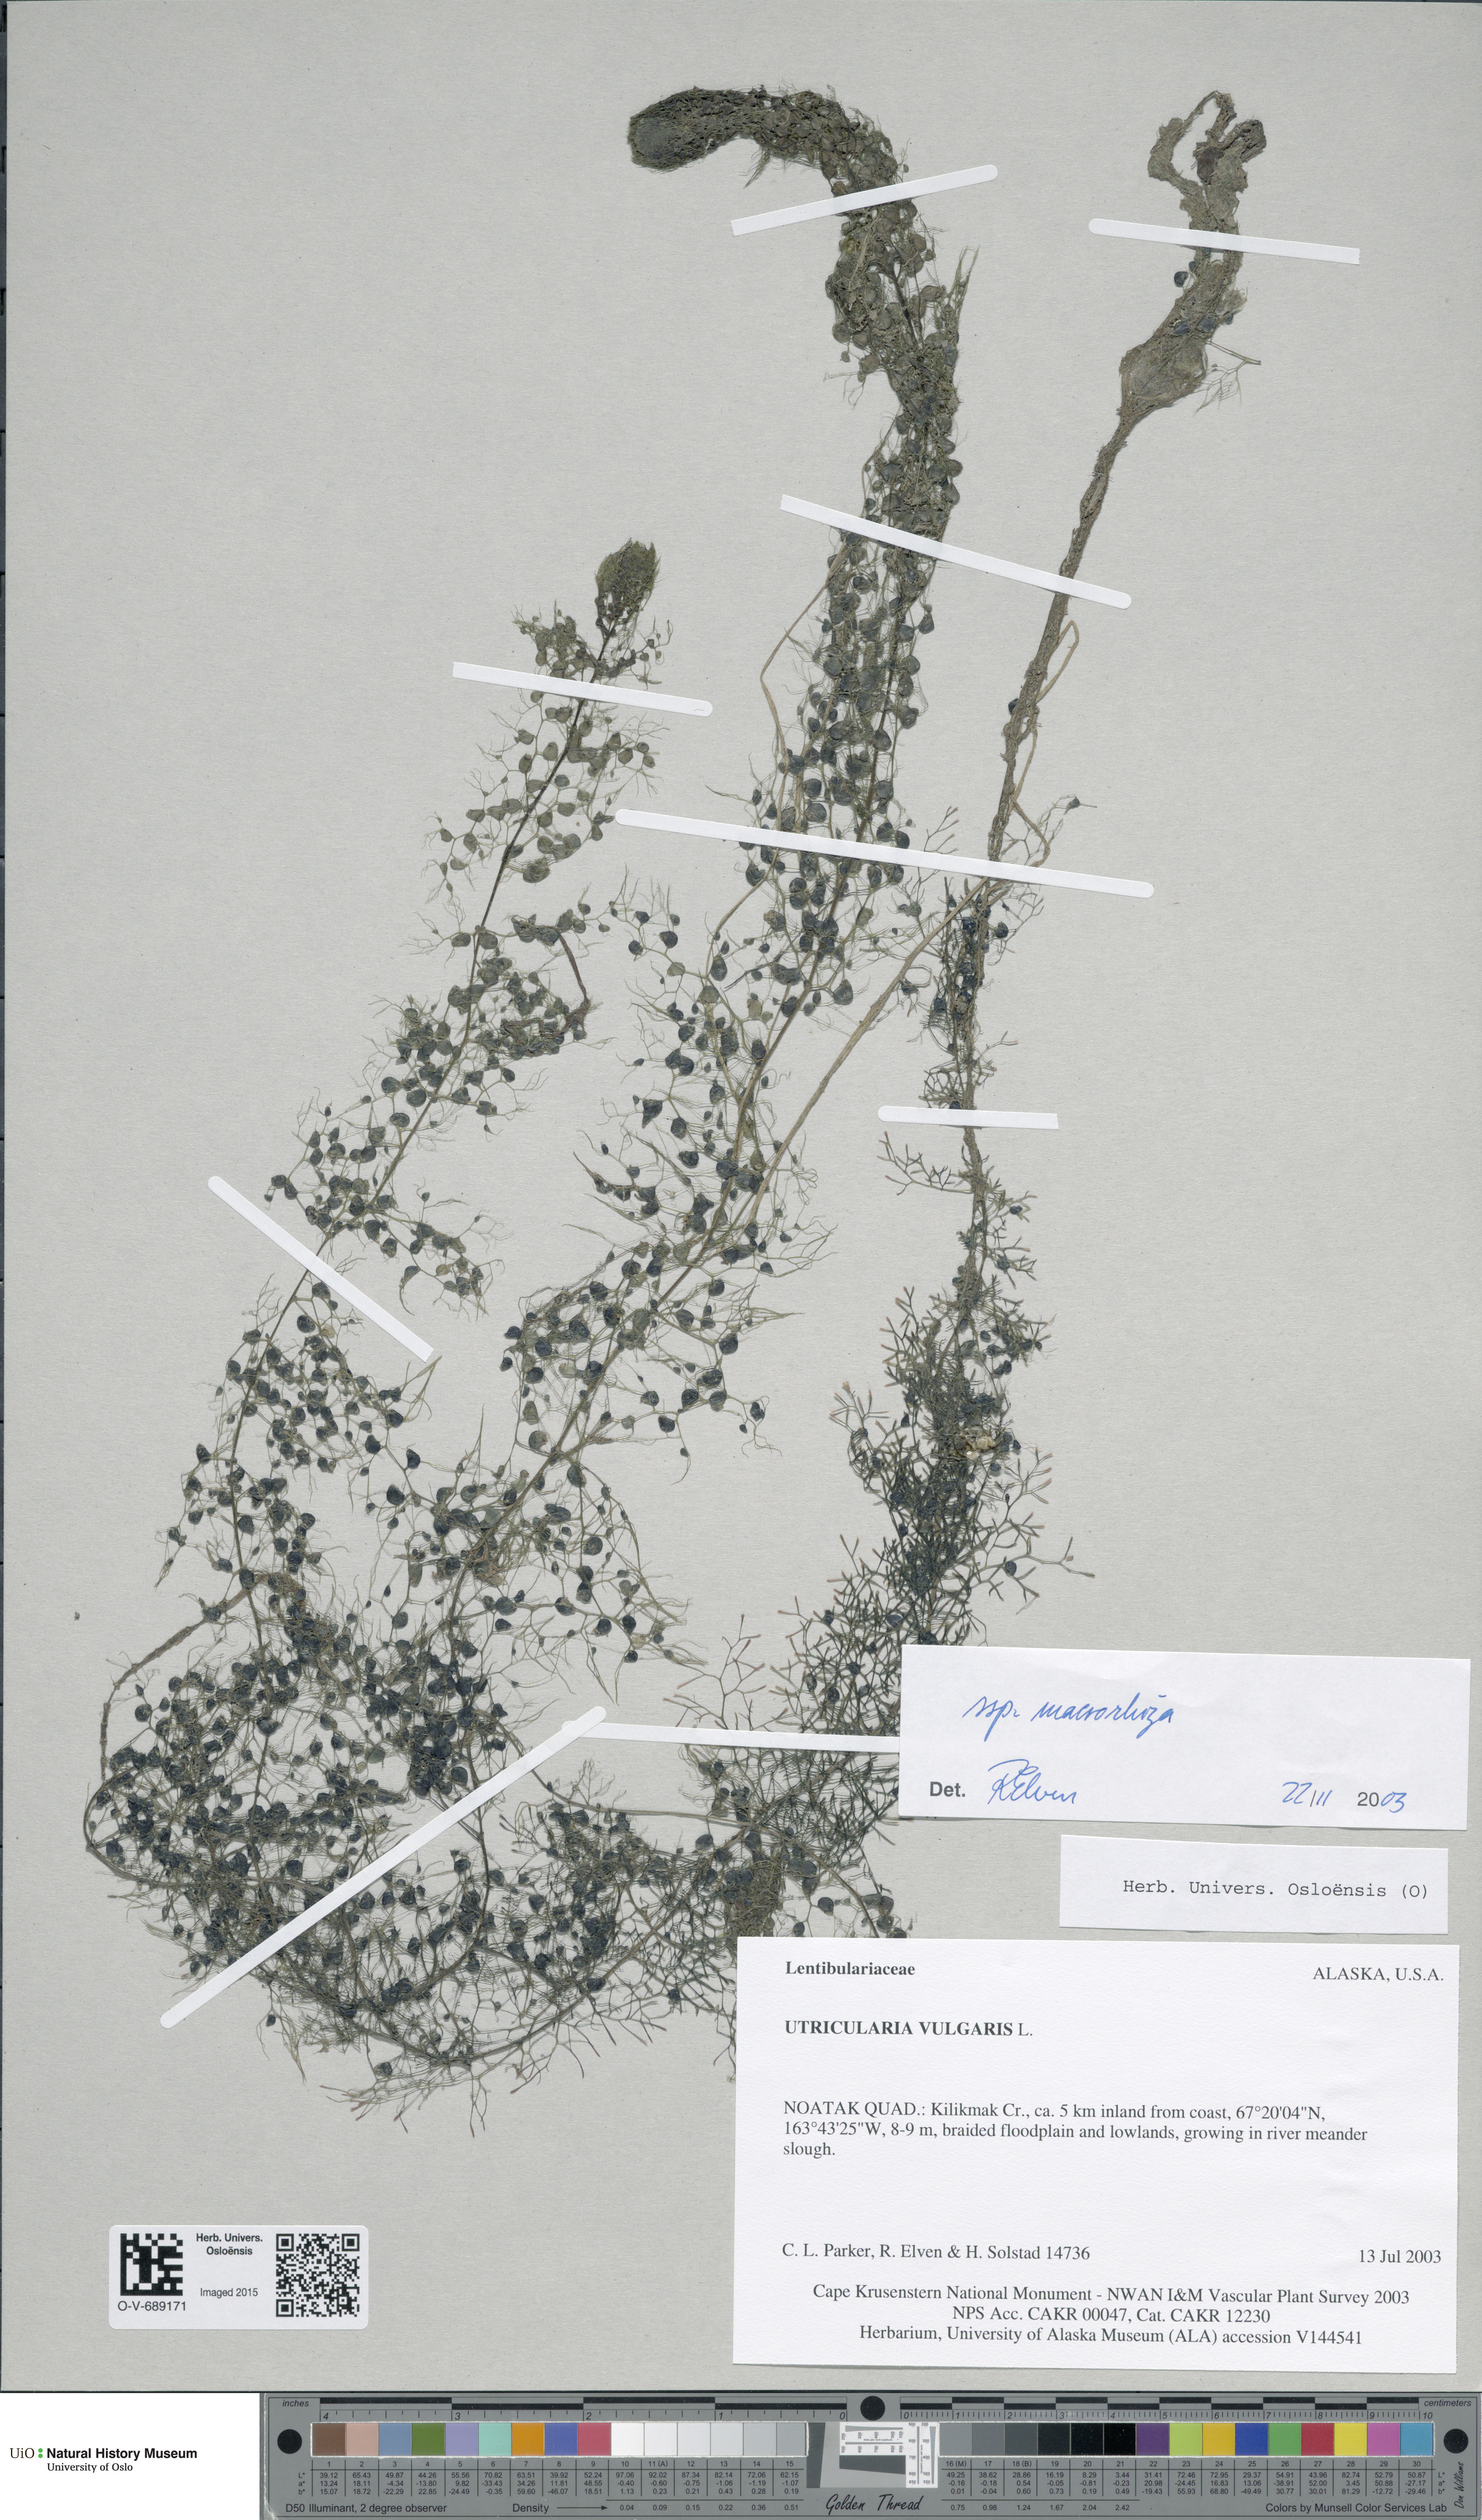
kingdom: Plantae
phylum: Tracheophyta
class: Magnoliopsida
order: Lamiales
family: Lentibulariaceae
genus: Utricularia
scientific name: Utricularia macrorhiza
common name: Common bladderwort
